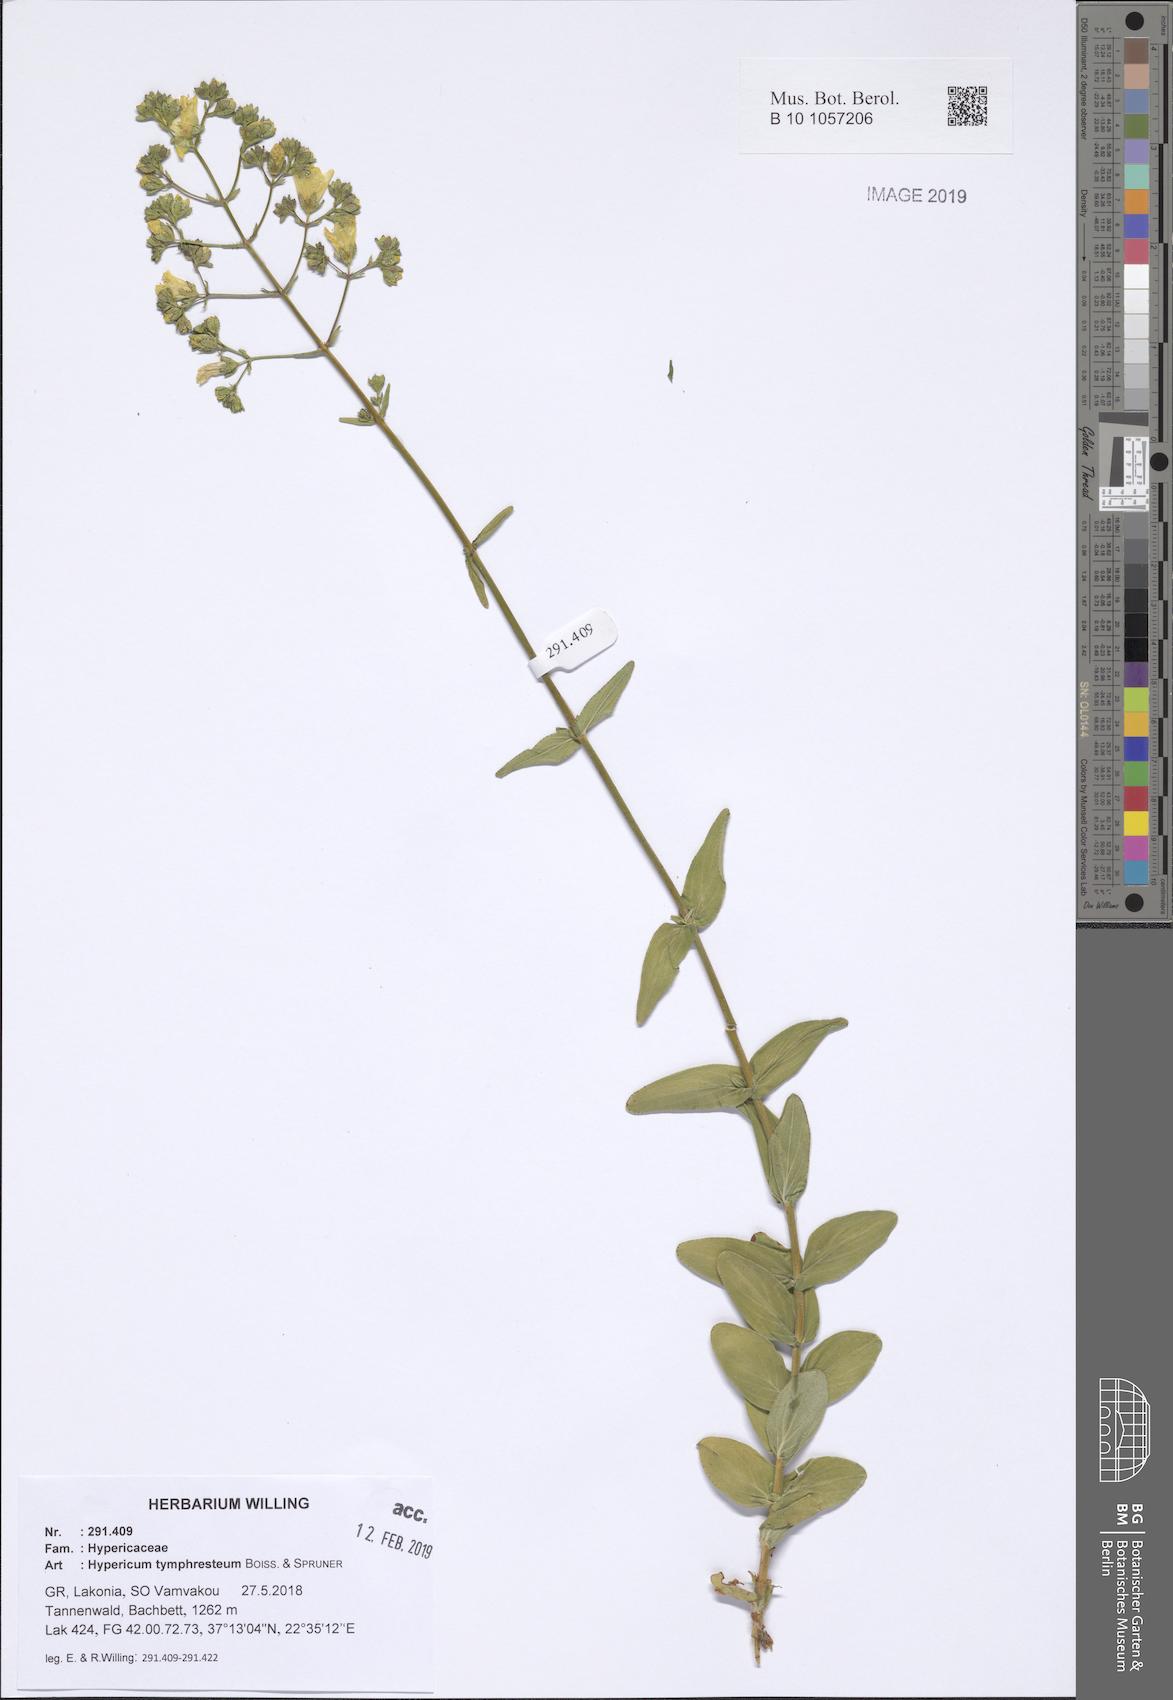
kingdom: Plantae
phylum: Tracheophyta
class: Magnoliopsida
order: Malpighiales
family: Hypericaceae
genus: Hypericum
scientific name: Hypericum tymphresteum
